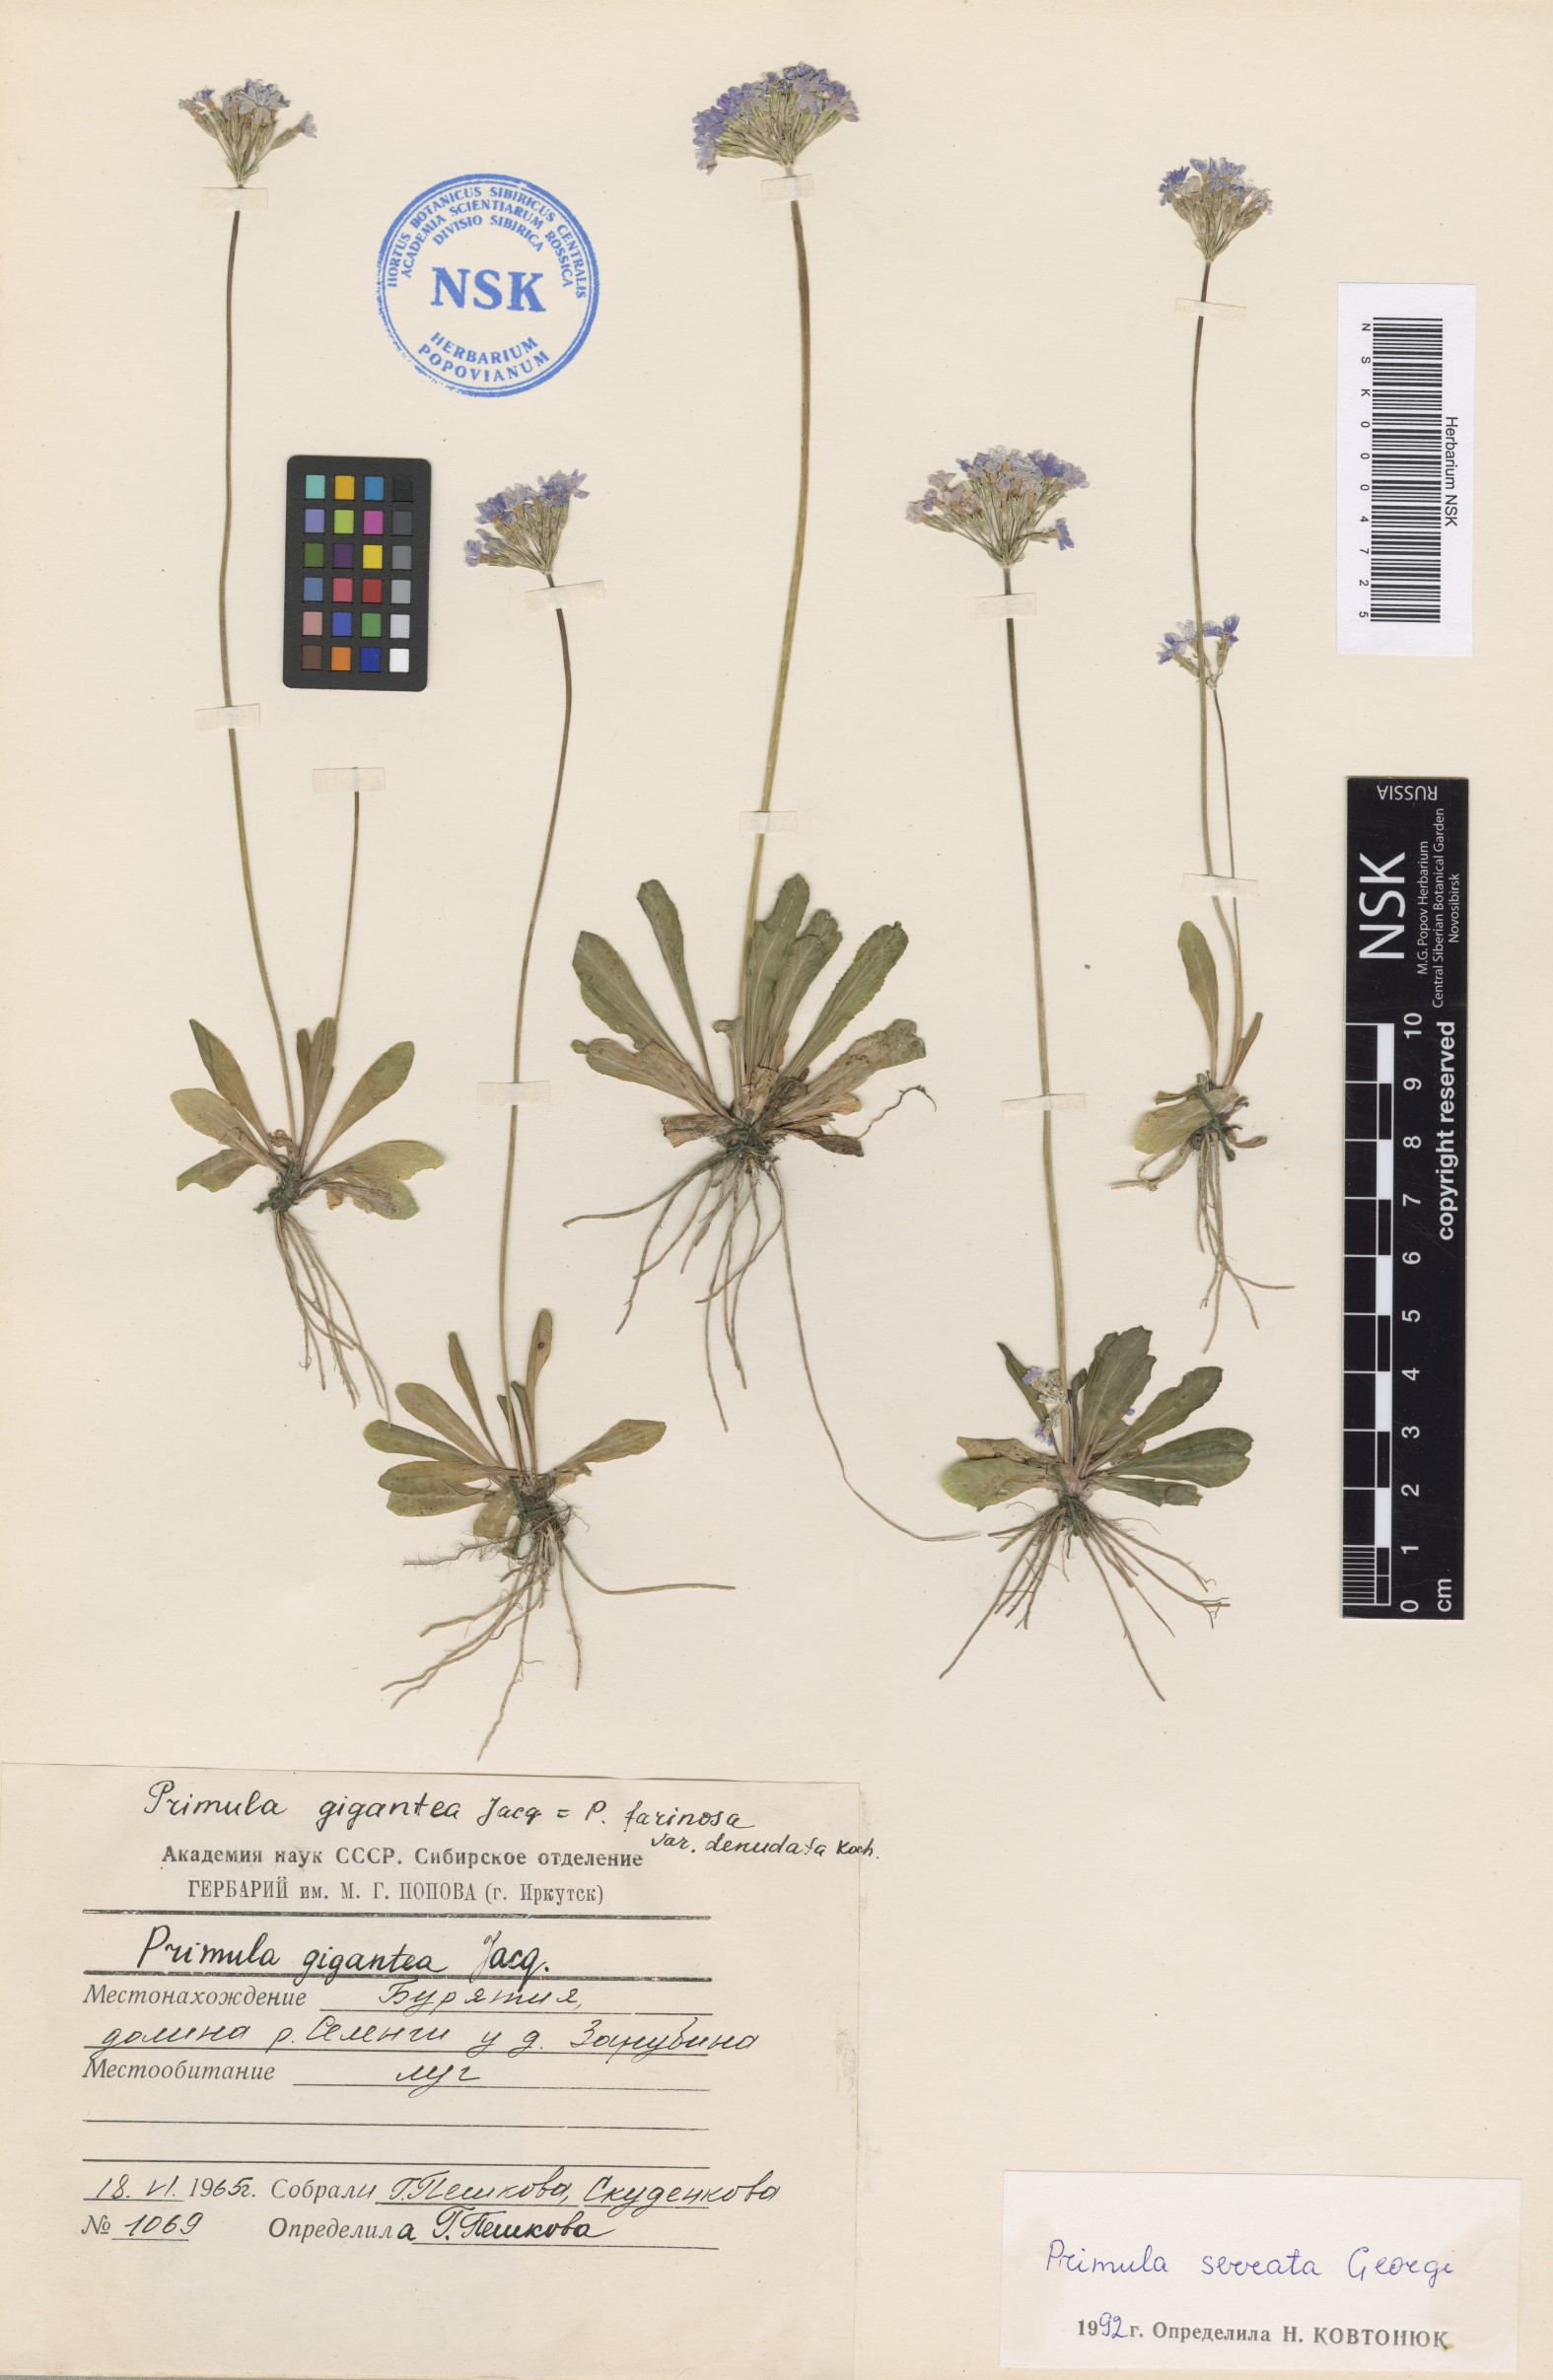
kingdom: Plantae
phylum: Tracheophyta
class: Magnoliopsida
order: Ericales
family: Primulaceae
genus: Primula
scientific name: Primula serrata
